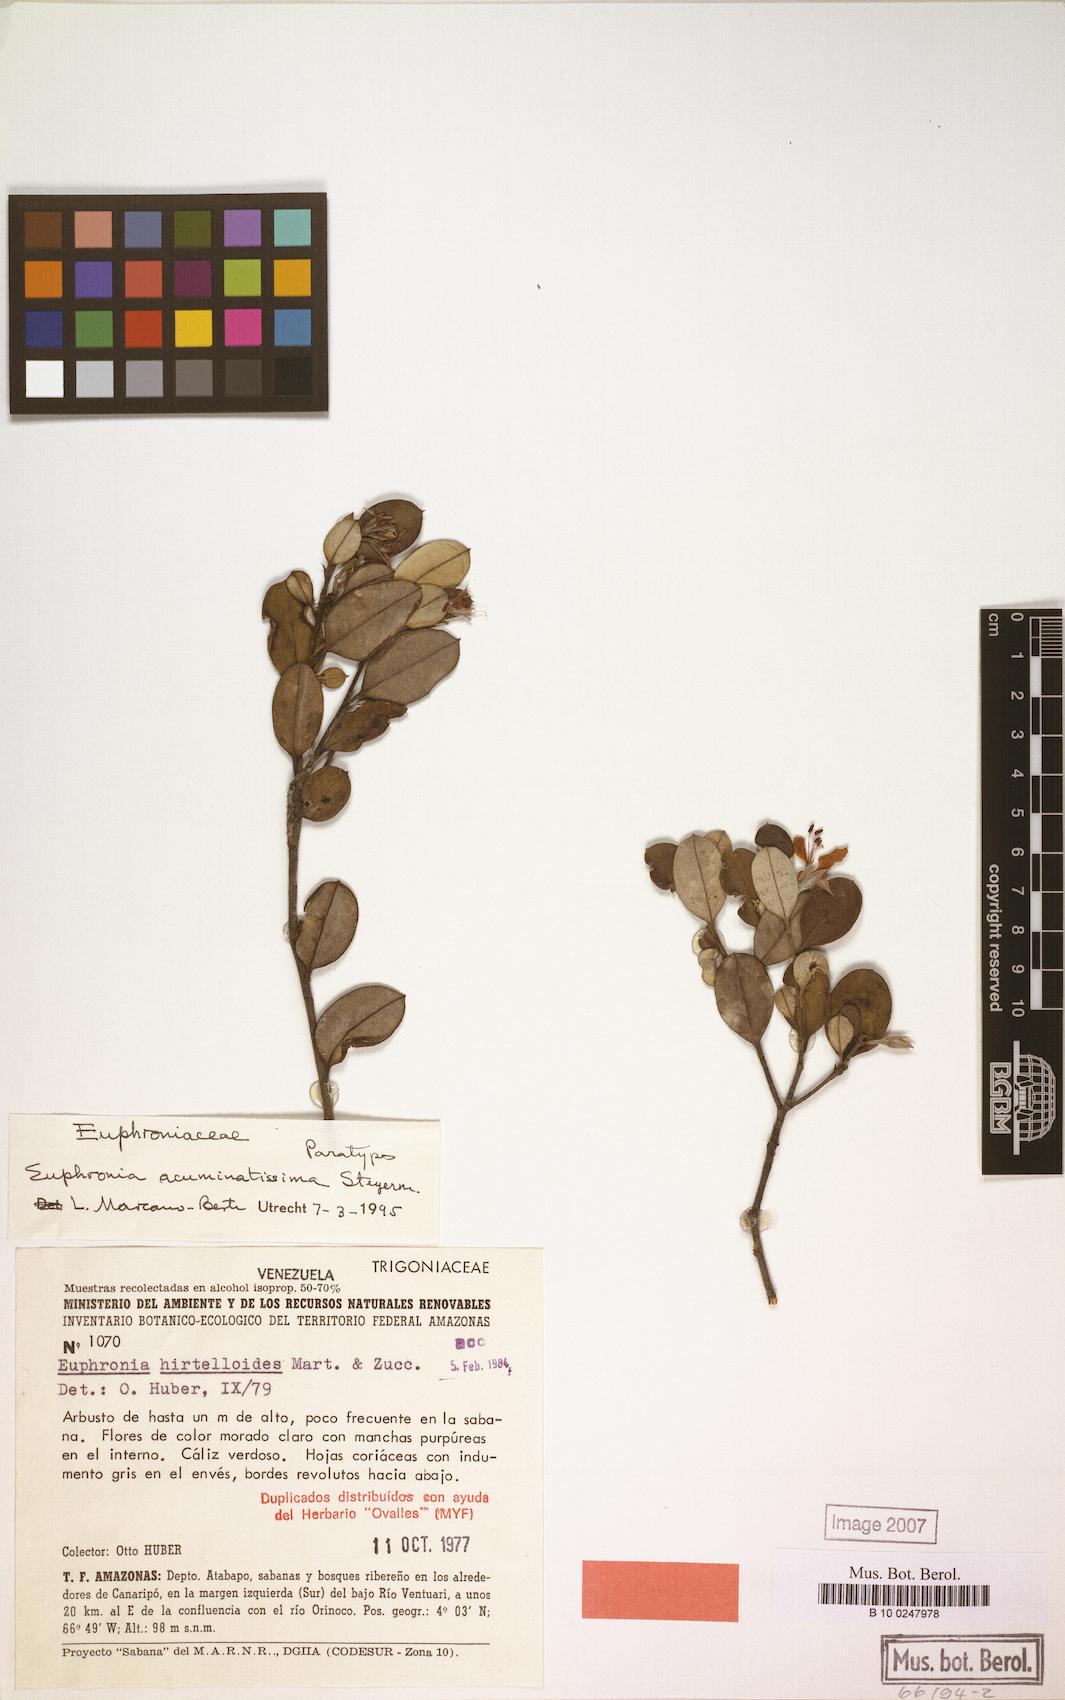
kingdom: Plantae
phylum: Tracheophyta
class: Magnoliopsida
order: Malpighiales
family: Euphroniaceae
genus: Euphronia
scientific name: Euphronia acuminatissima
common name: Acuminate euphronia
